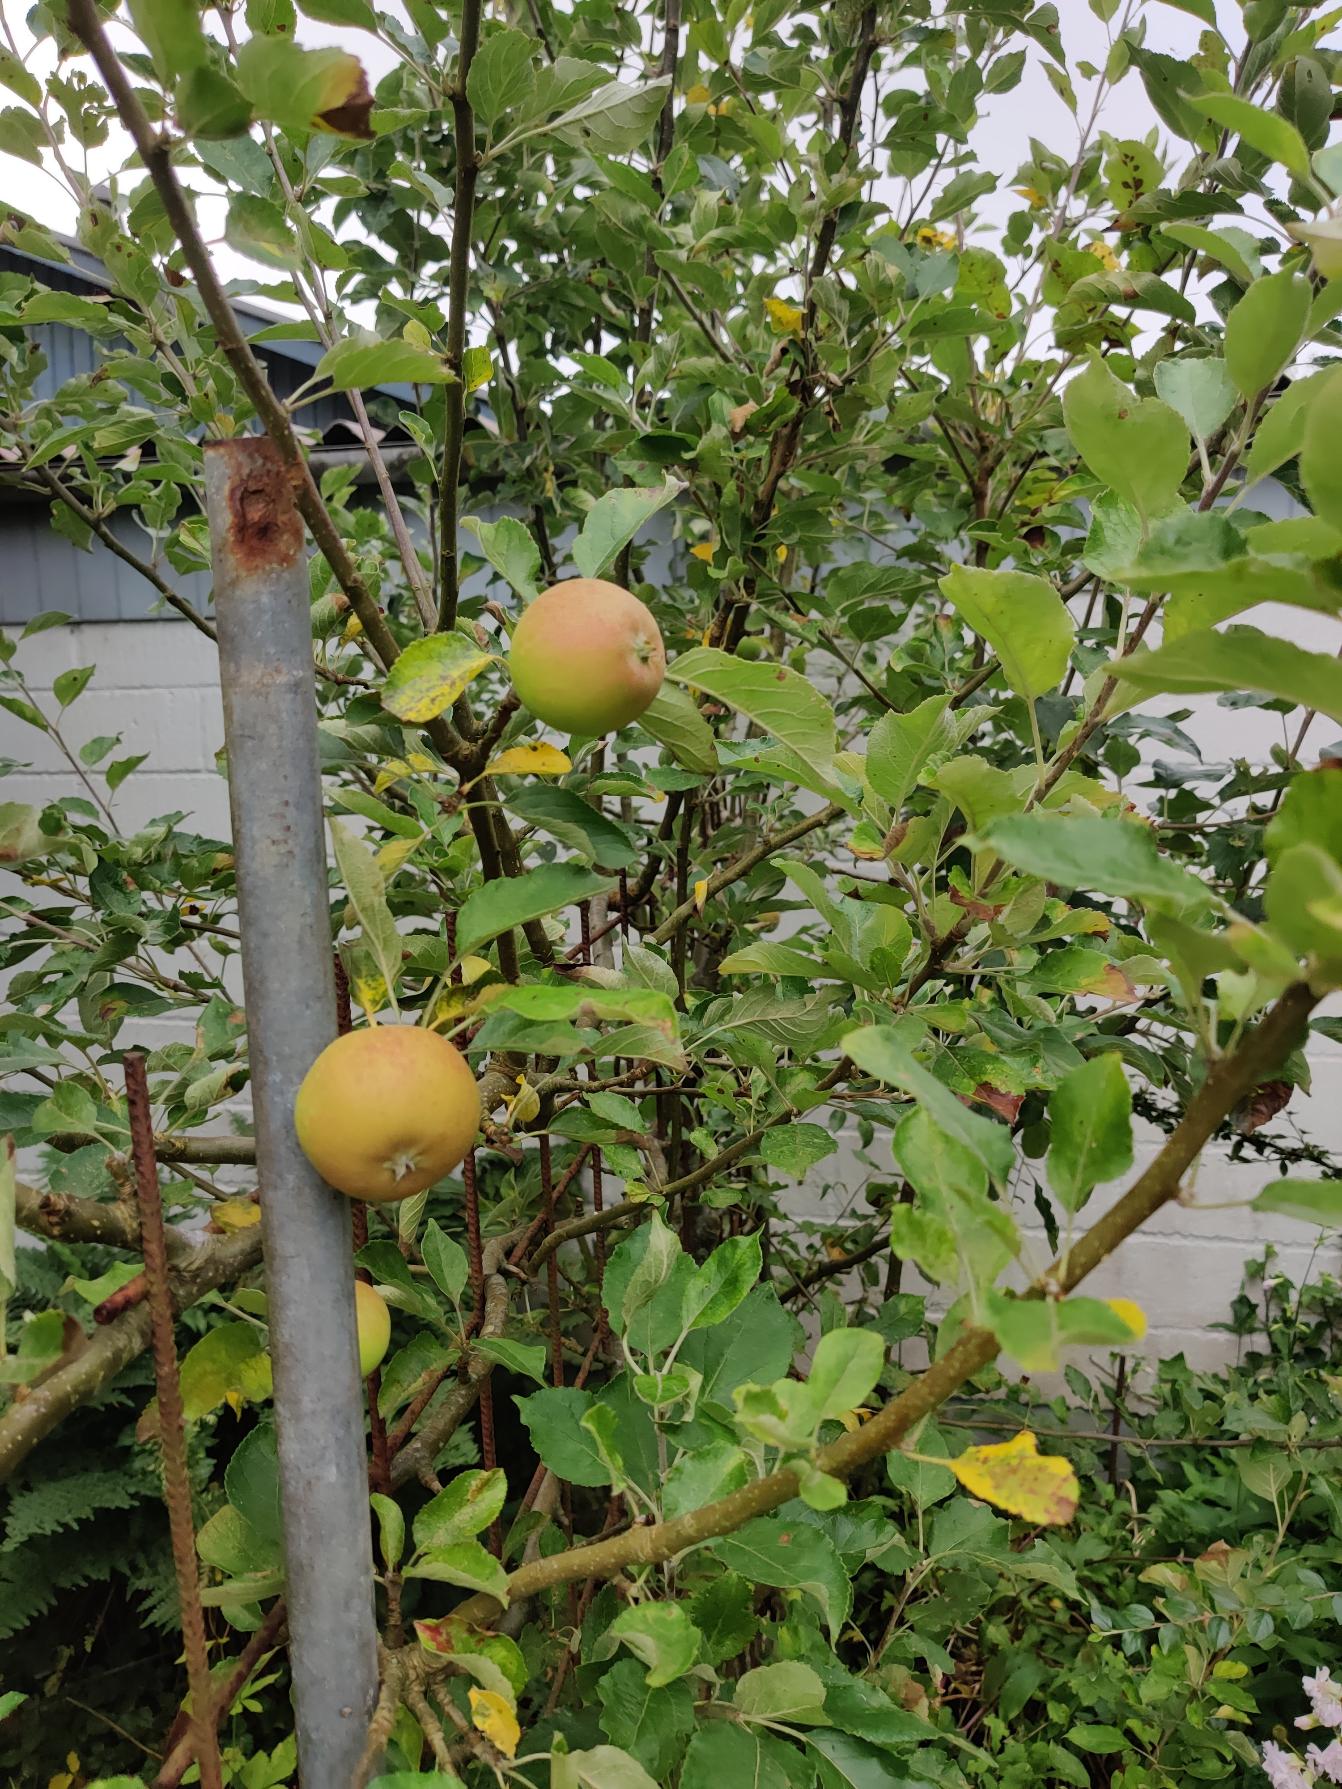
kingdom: Plantae
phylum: Tracheophyta
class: Magnoliopsida
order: Rosales
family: Rosaceae
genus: Malus
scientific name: Malus domestica
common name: Sød-æble
